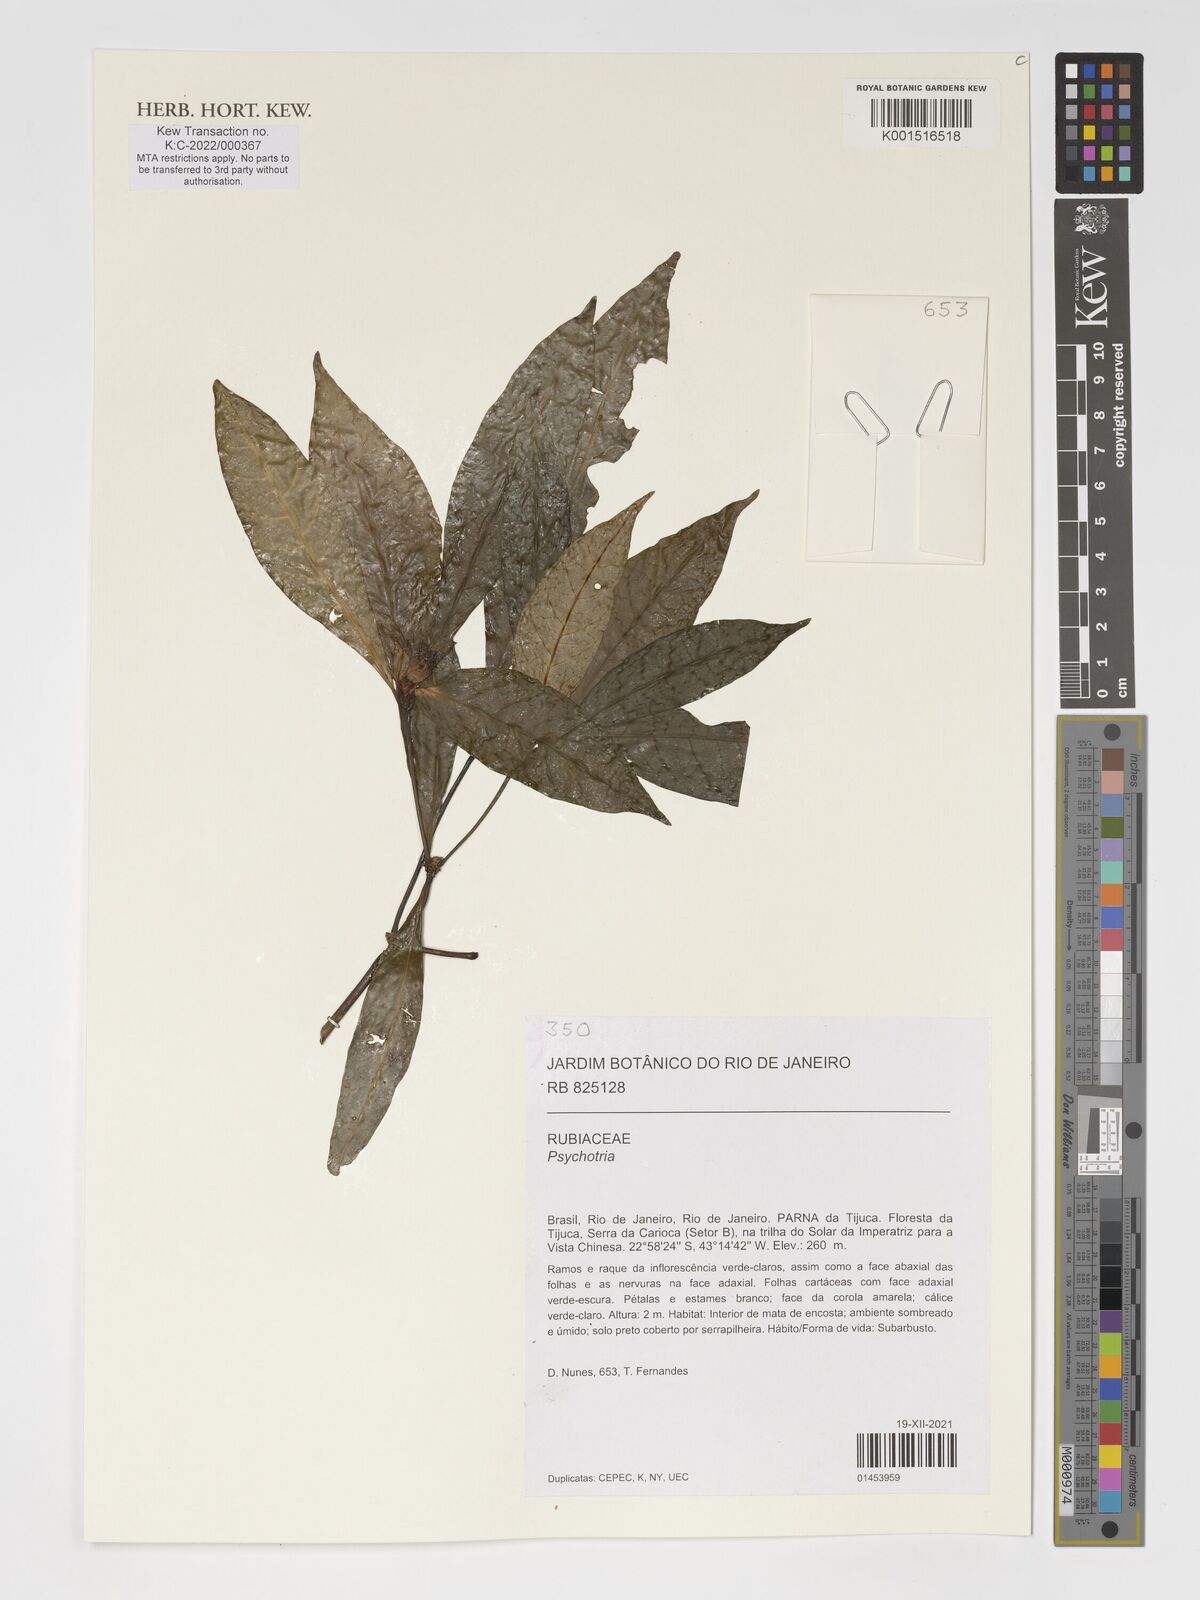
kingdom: Plantae
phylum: Tracheophyta
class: Magnoliopsida
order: Gentianales
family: Rubiaceae
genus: Psychotria
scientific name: Psychotria
